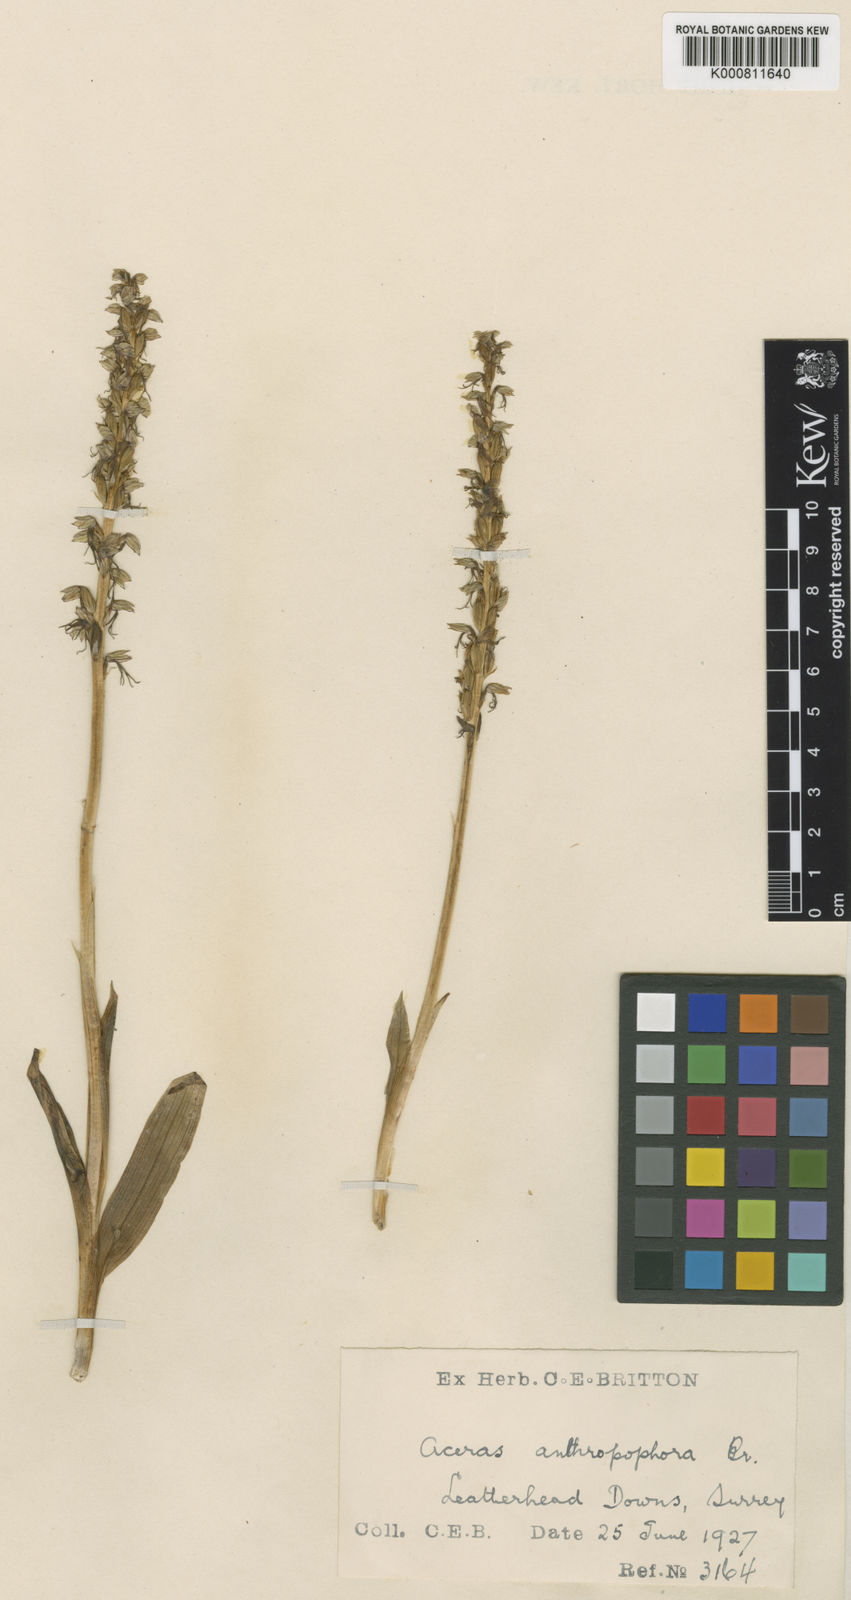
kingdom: Plantae
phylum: Tracheophyta
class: Liliopsida
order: Asparagales
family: Orchidaceae
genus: Orchis
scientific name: Orchis
